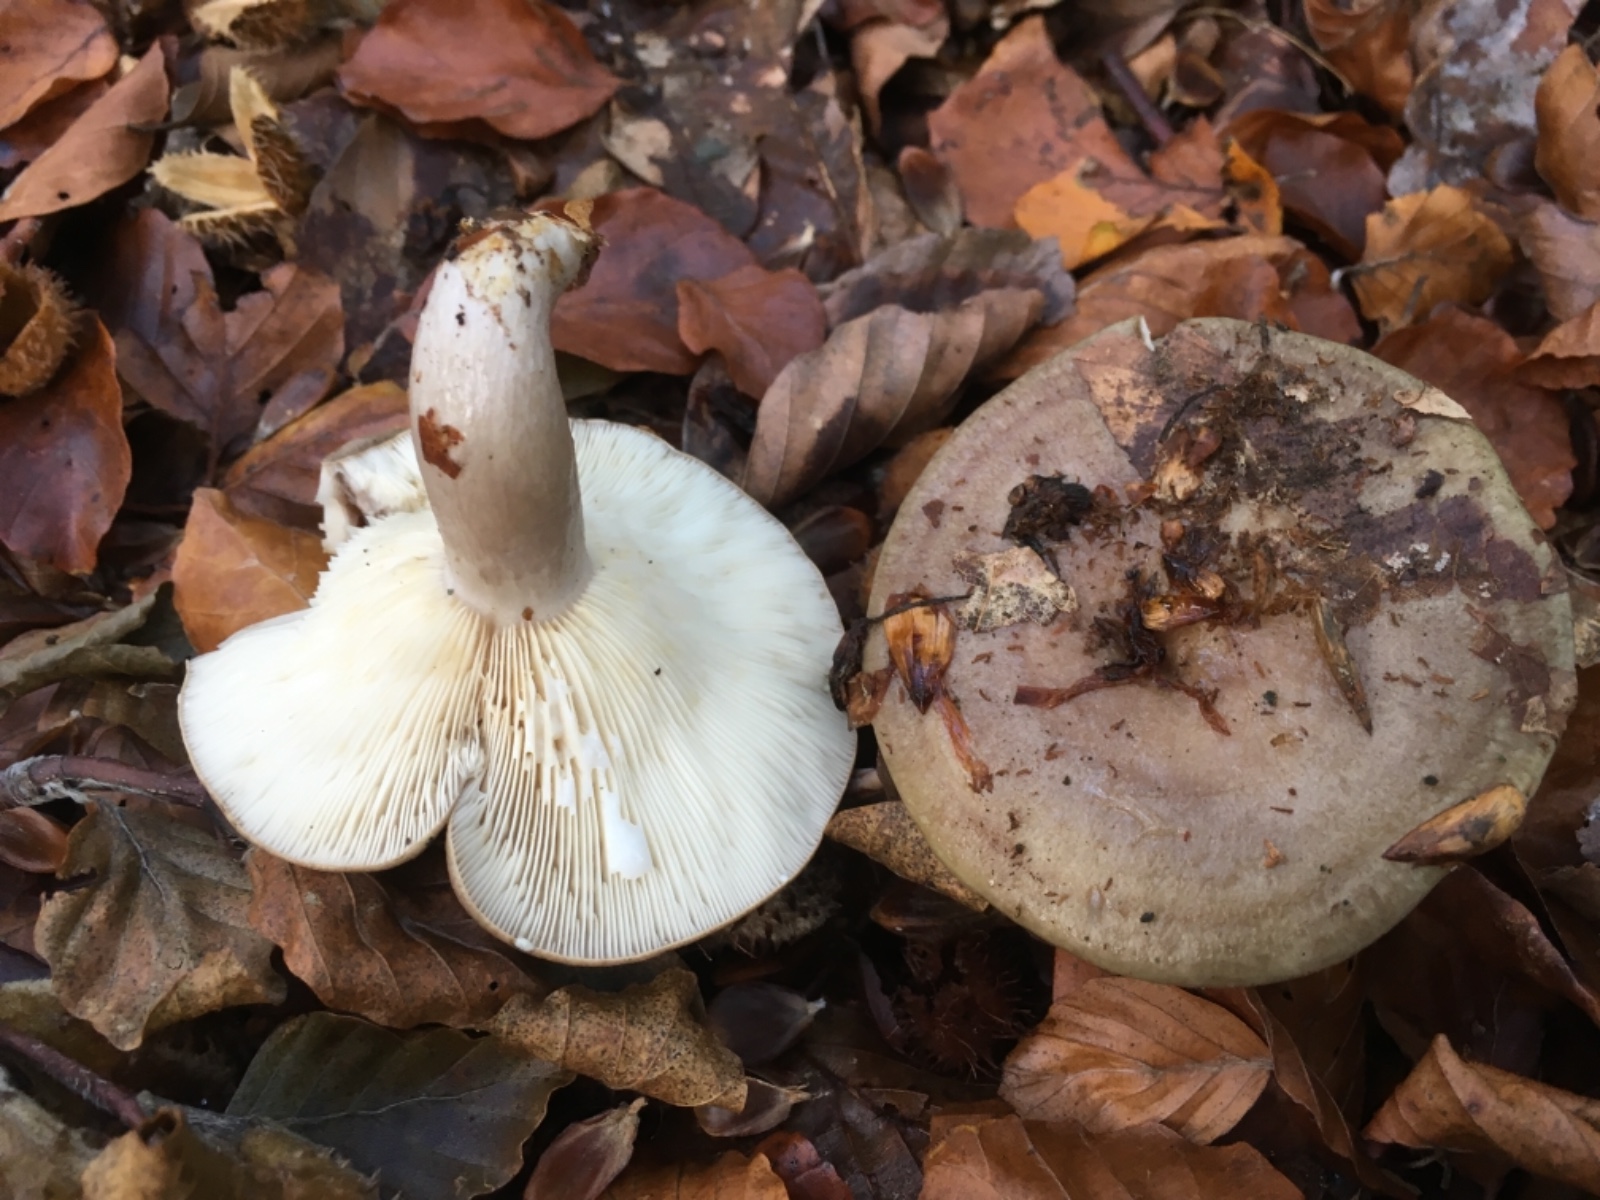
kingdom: Fungi
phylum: Basidiomycota
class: Agaricomycetes
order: Russulales
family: Russulaceae
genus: Lactarius
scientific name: Lactarius blennius
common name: dråbeplettet mælkehat
